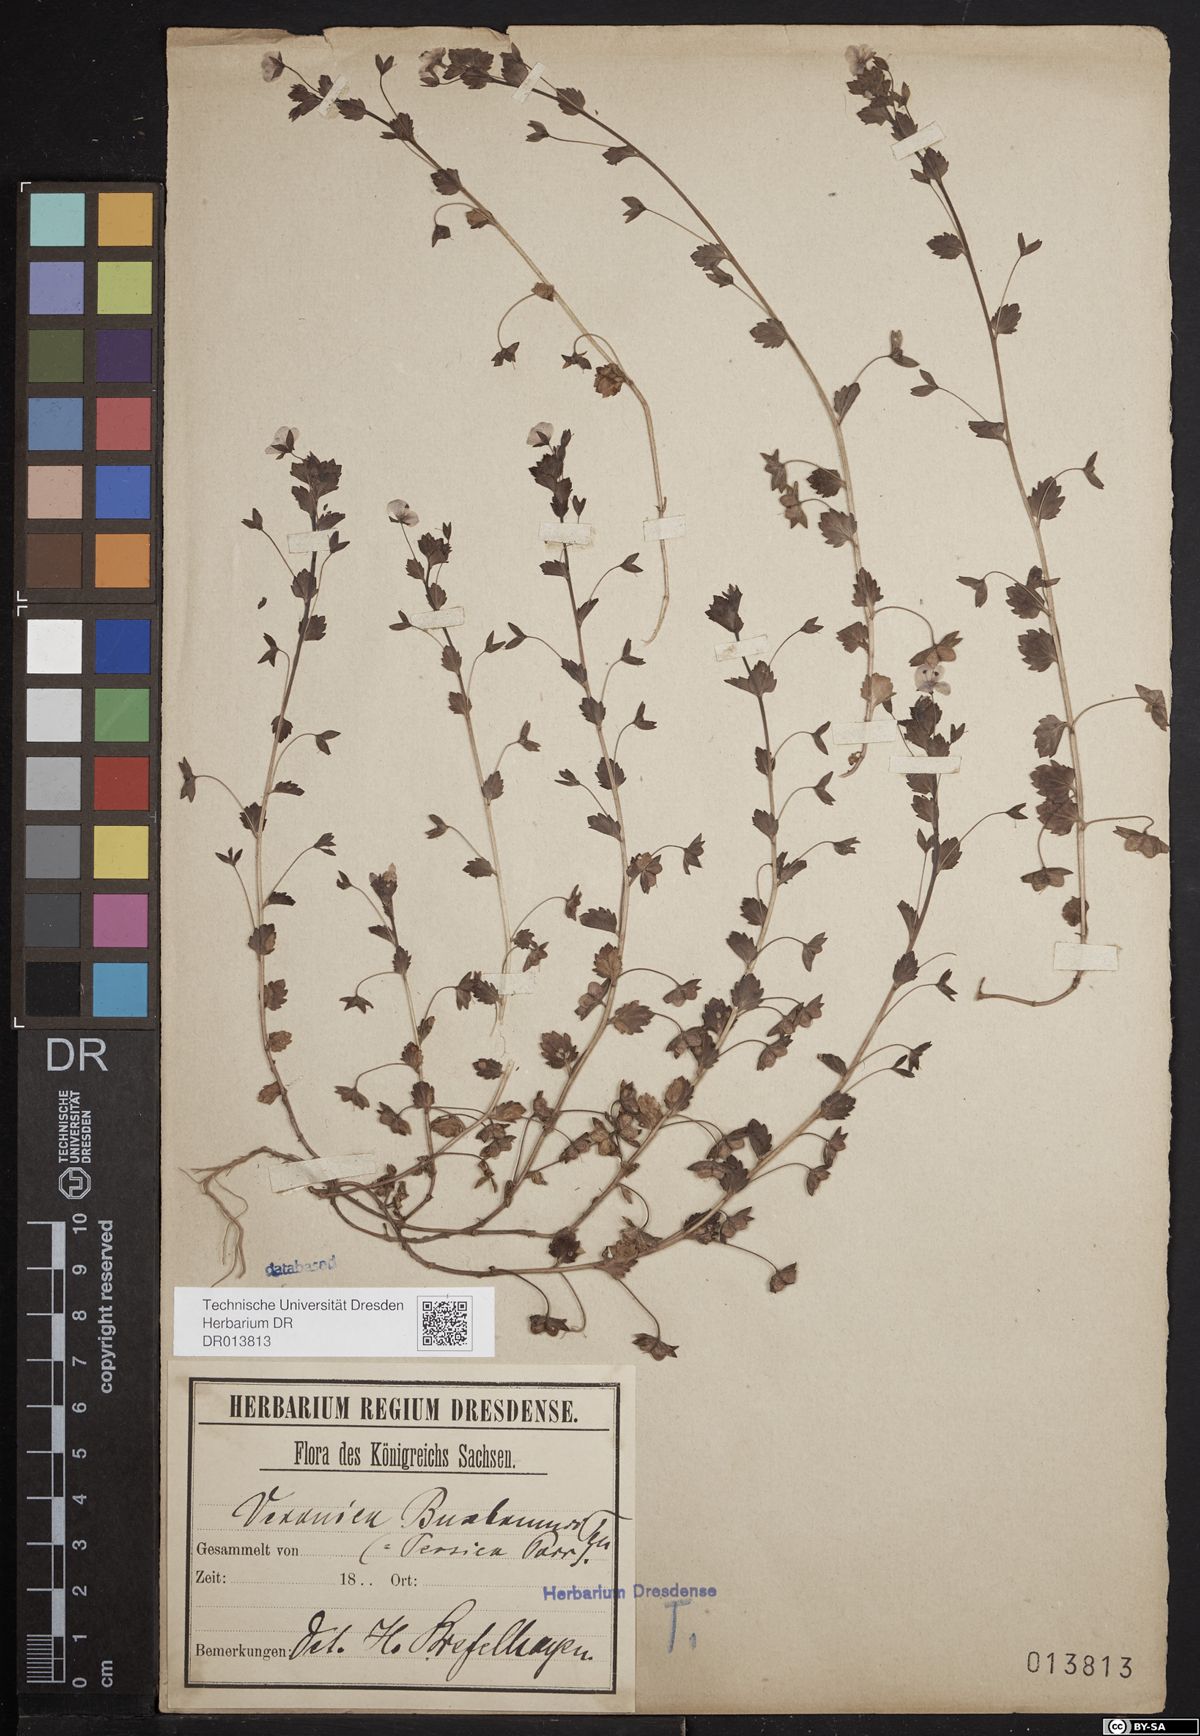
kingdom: Plantae
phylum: Tracheophyta
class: Magnoliopsida
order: Lamiales
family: Plantaginaceae
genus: Veronica
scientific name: Veronica persica
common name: Common field-speedwell
